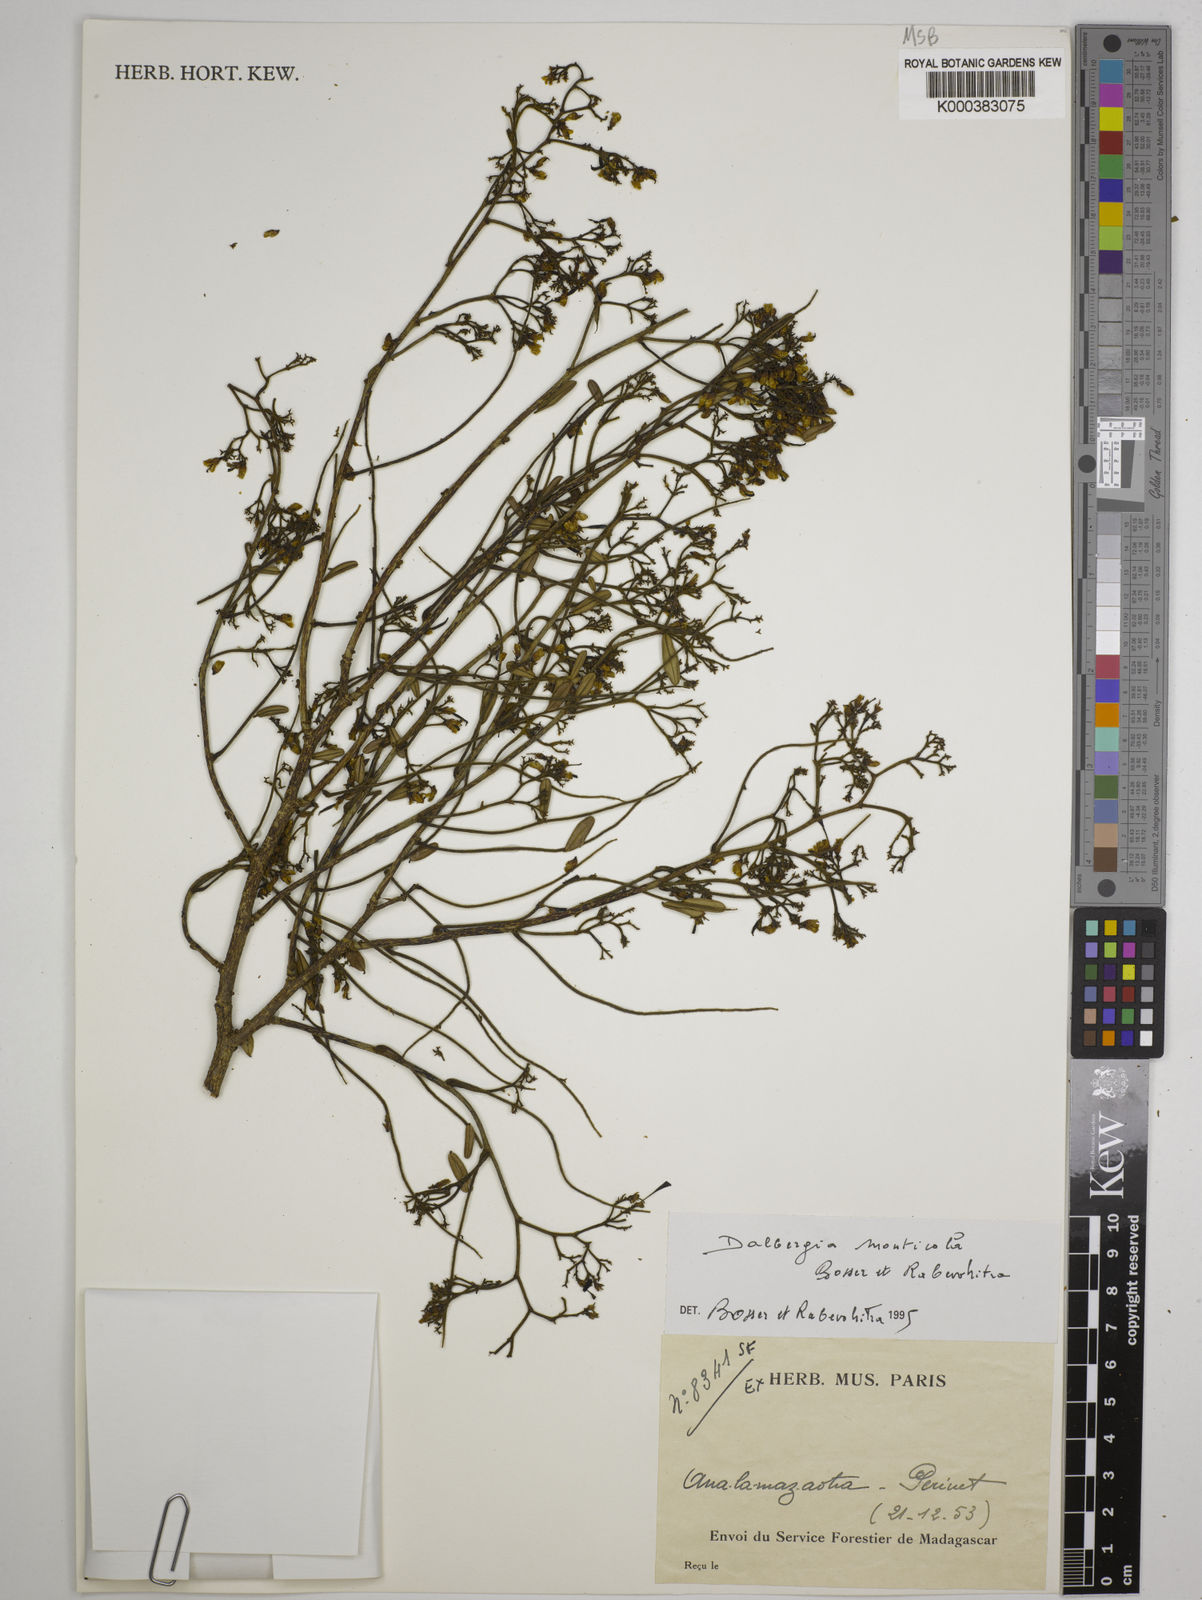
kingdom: Plantae
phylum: Tracheophyta
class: Magnoliopsida
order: Fabales
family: Fabaceae
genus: Dalbergia
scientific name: Dalbergia monticola
